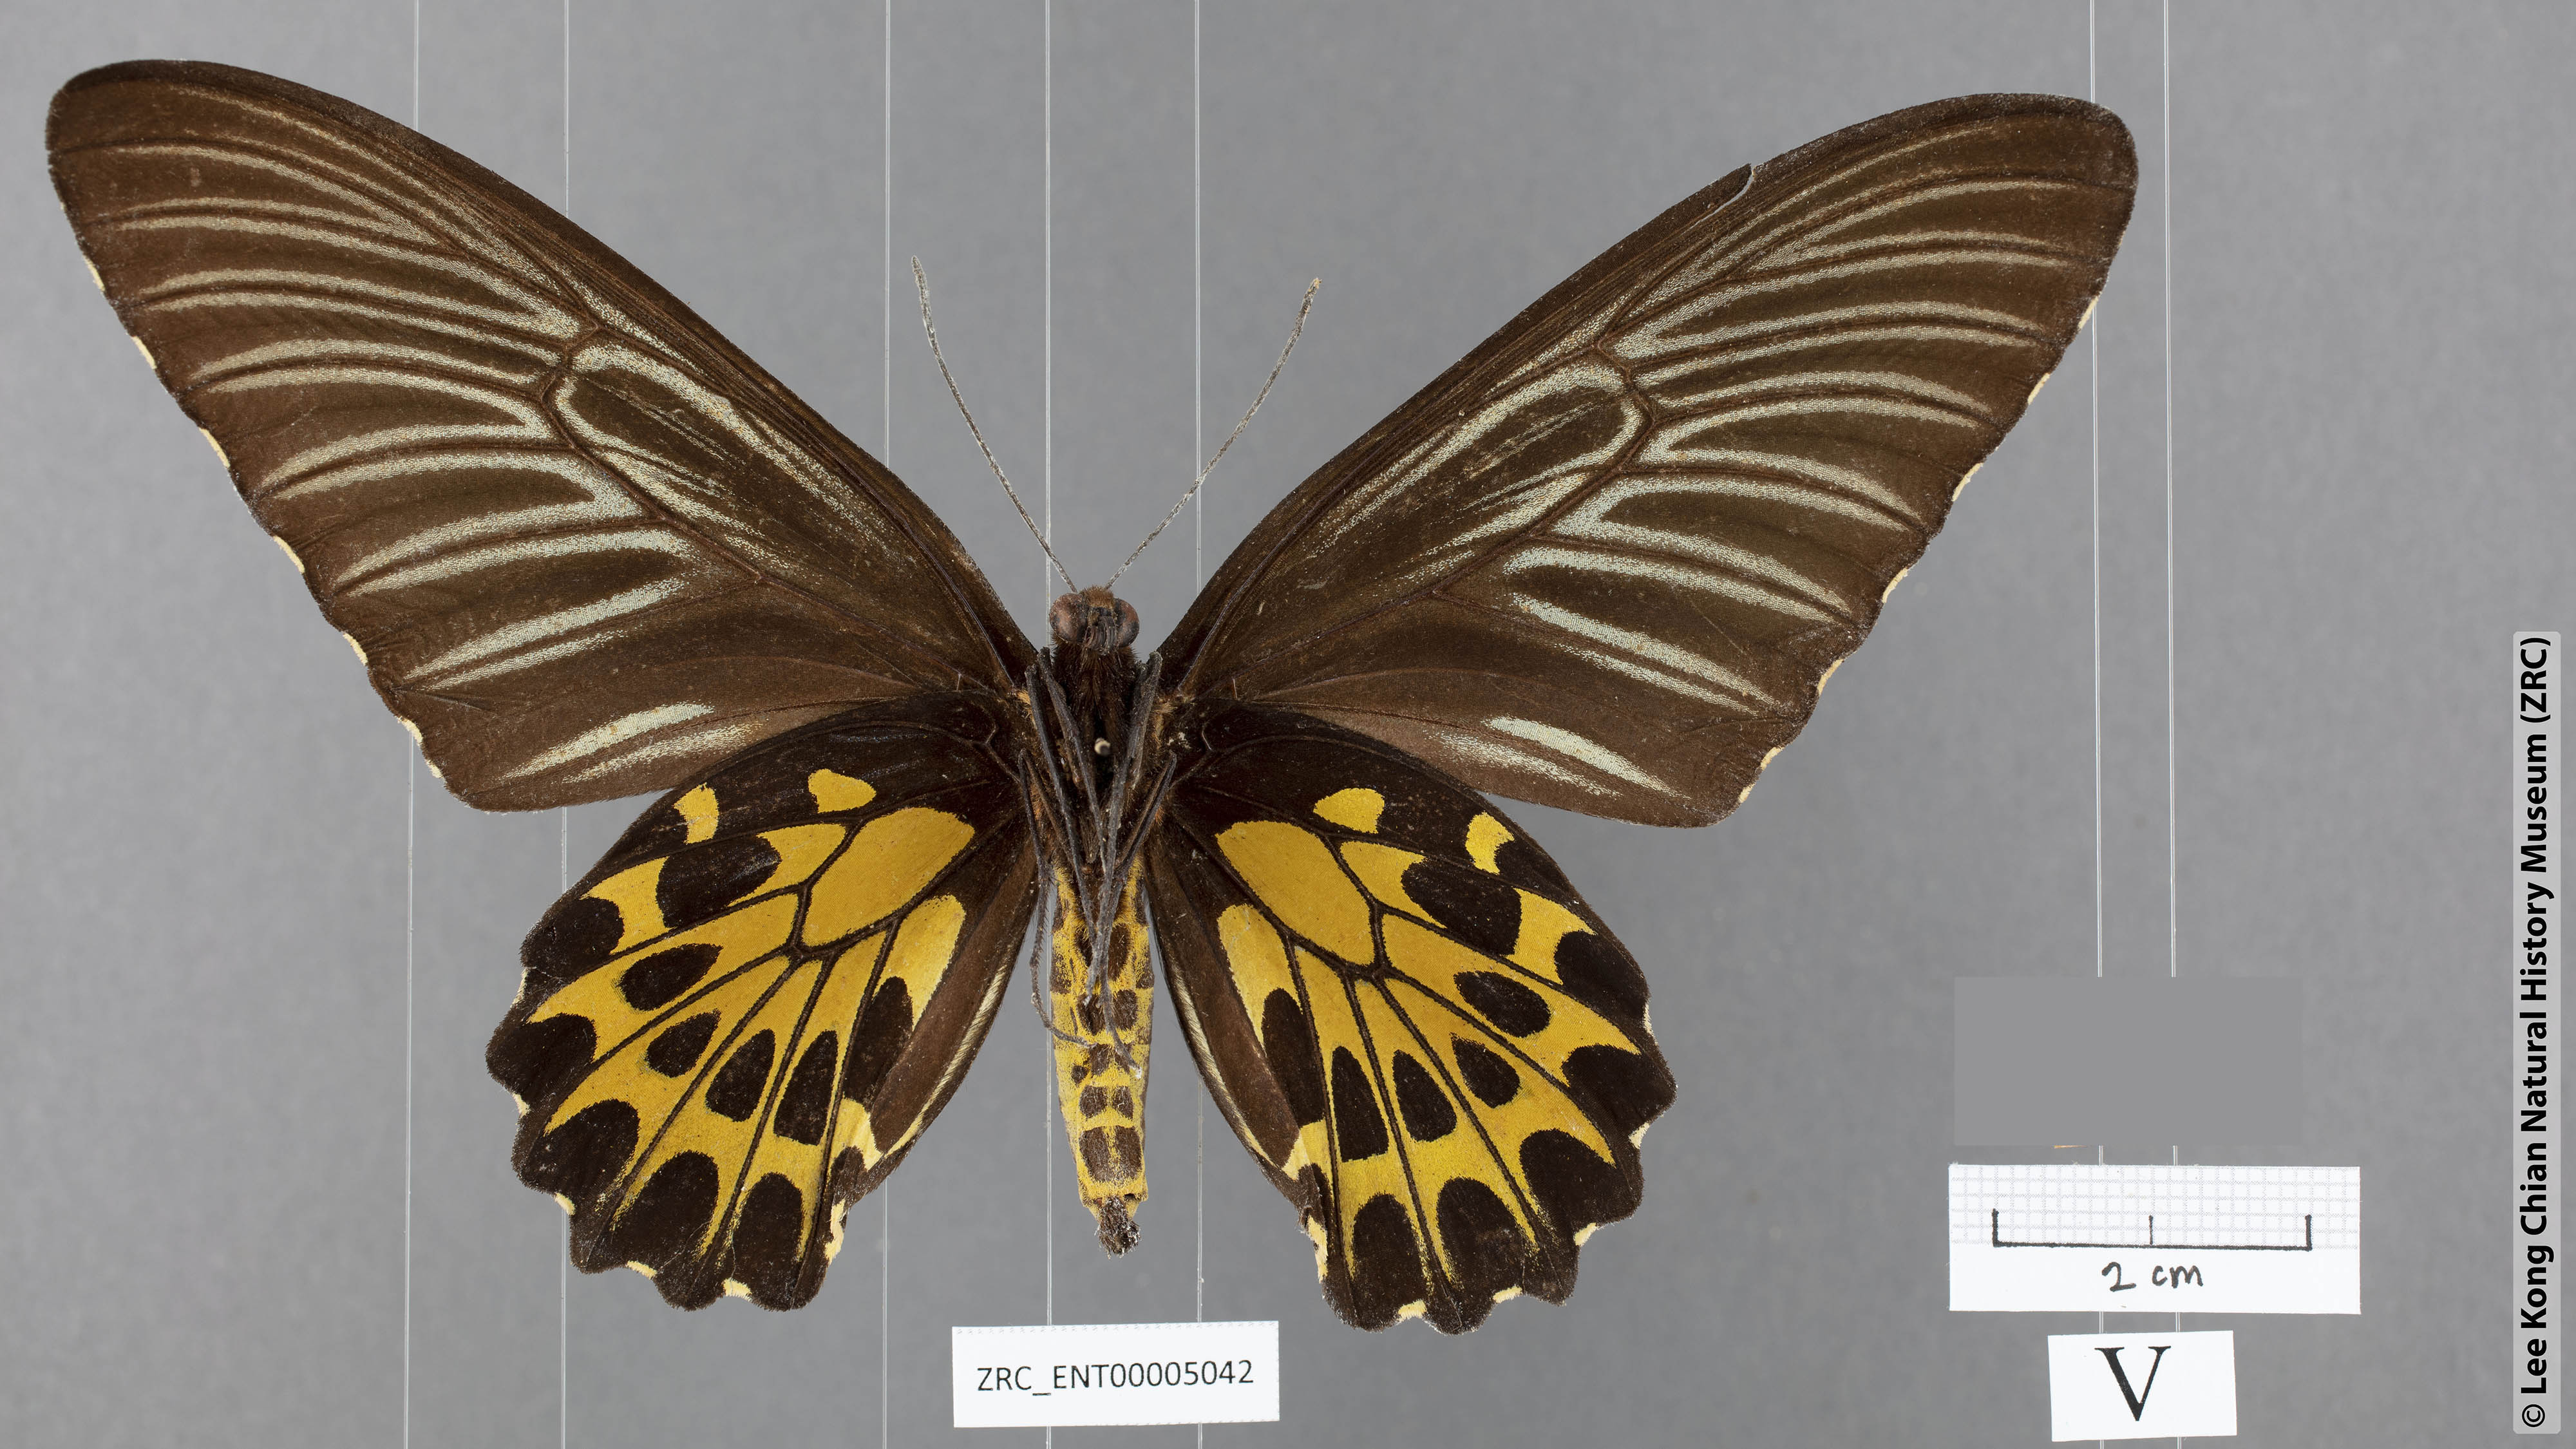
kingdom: Animalia
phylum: Arthropoda
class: Insecta
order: Lepidoptera
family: Papilionidae
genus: Troides
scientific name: Troides aeacus
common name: Golden birdwing
